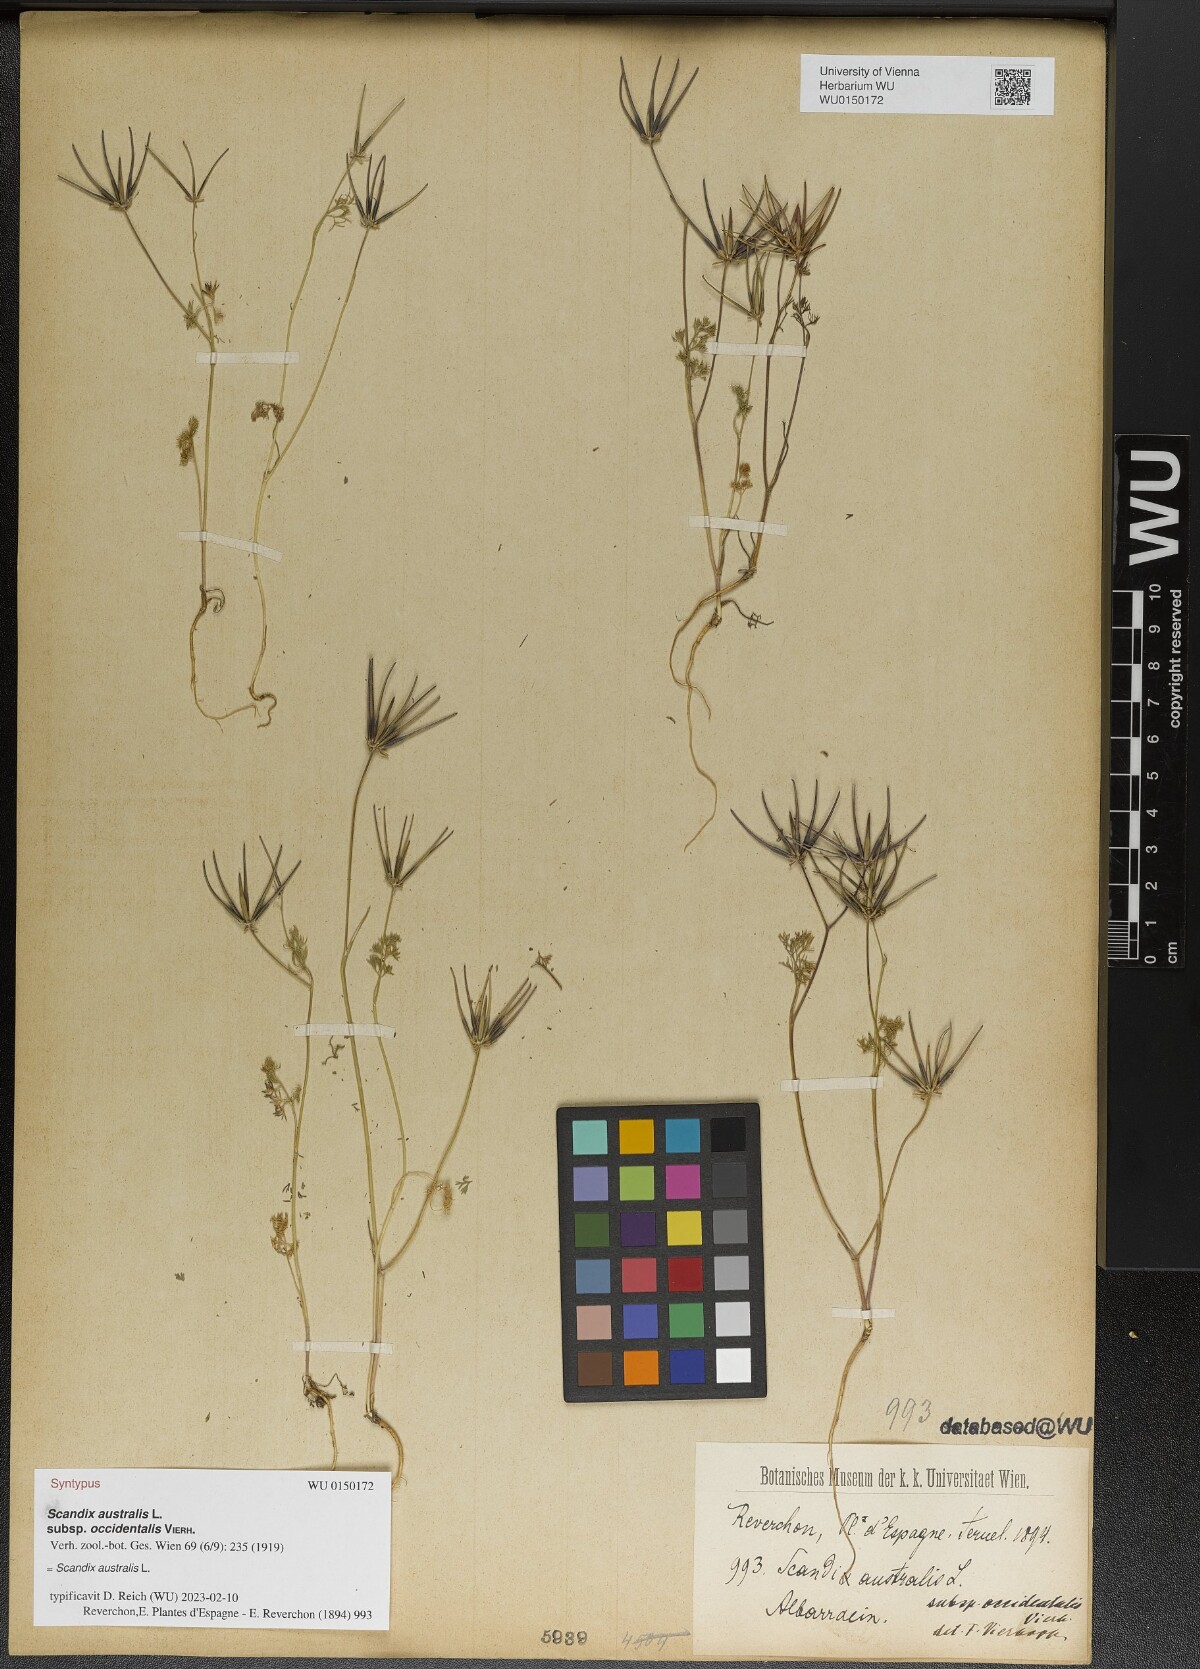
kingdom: Plantae
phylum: Tracheophyta
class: Magnoliopsida
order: Apiales
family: Apiaceae
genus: Scandix
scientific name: Scandix australis
